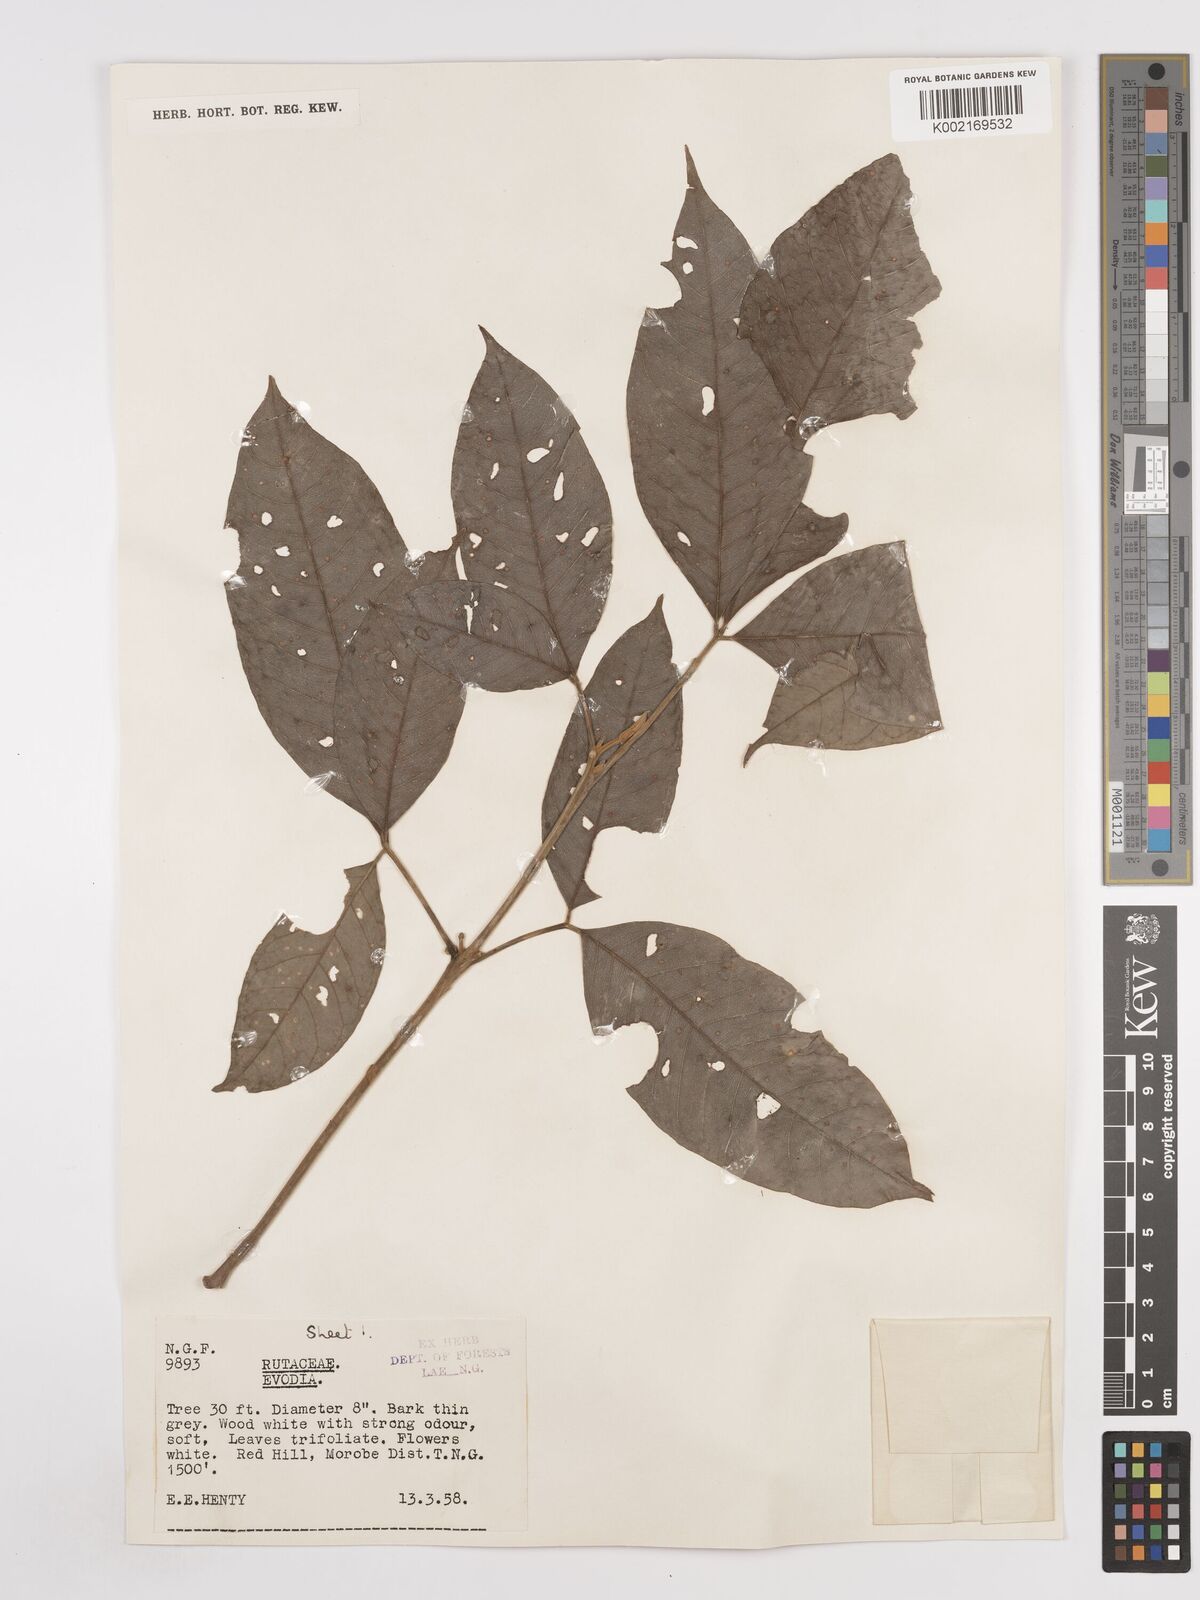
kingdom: Plantae
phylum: Tracheophyta
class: Magnoliopsida
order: Sapindales
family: Rutaceae
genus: Euodia
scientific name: Euodia
